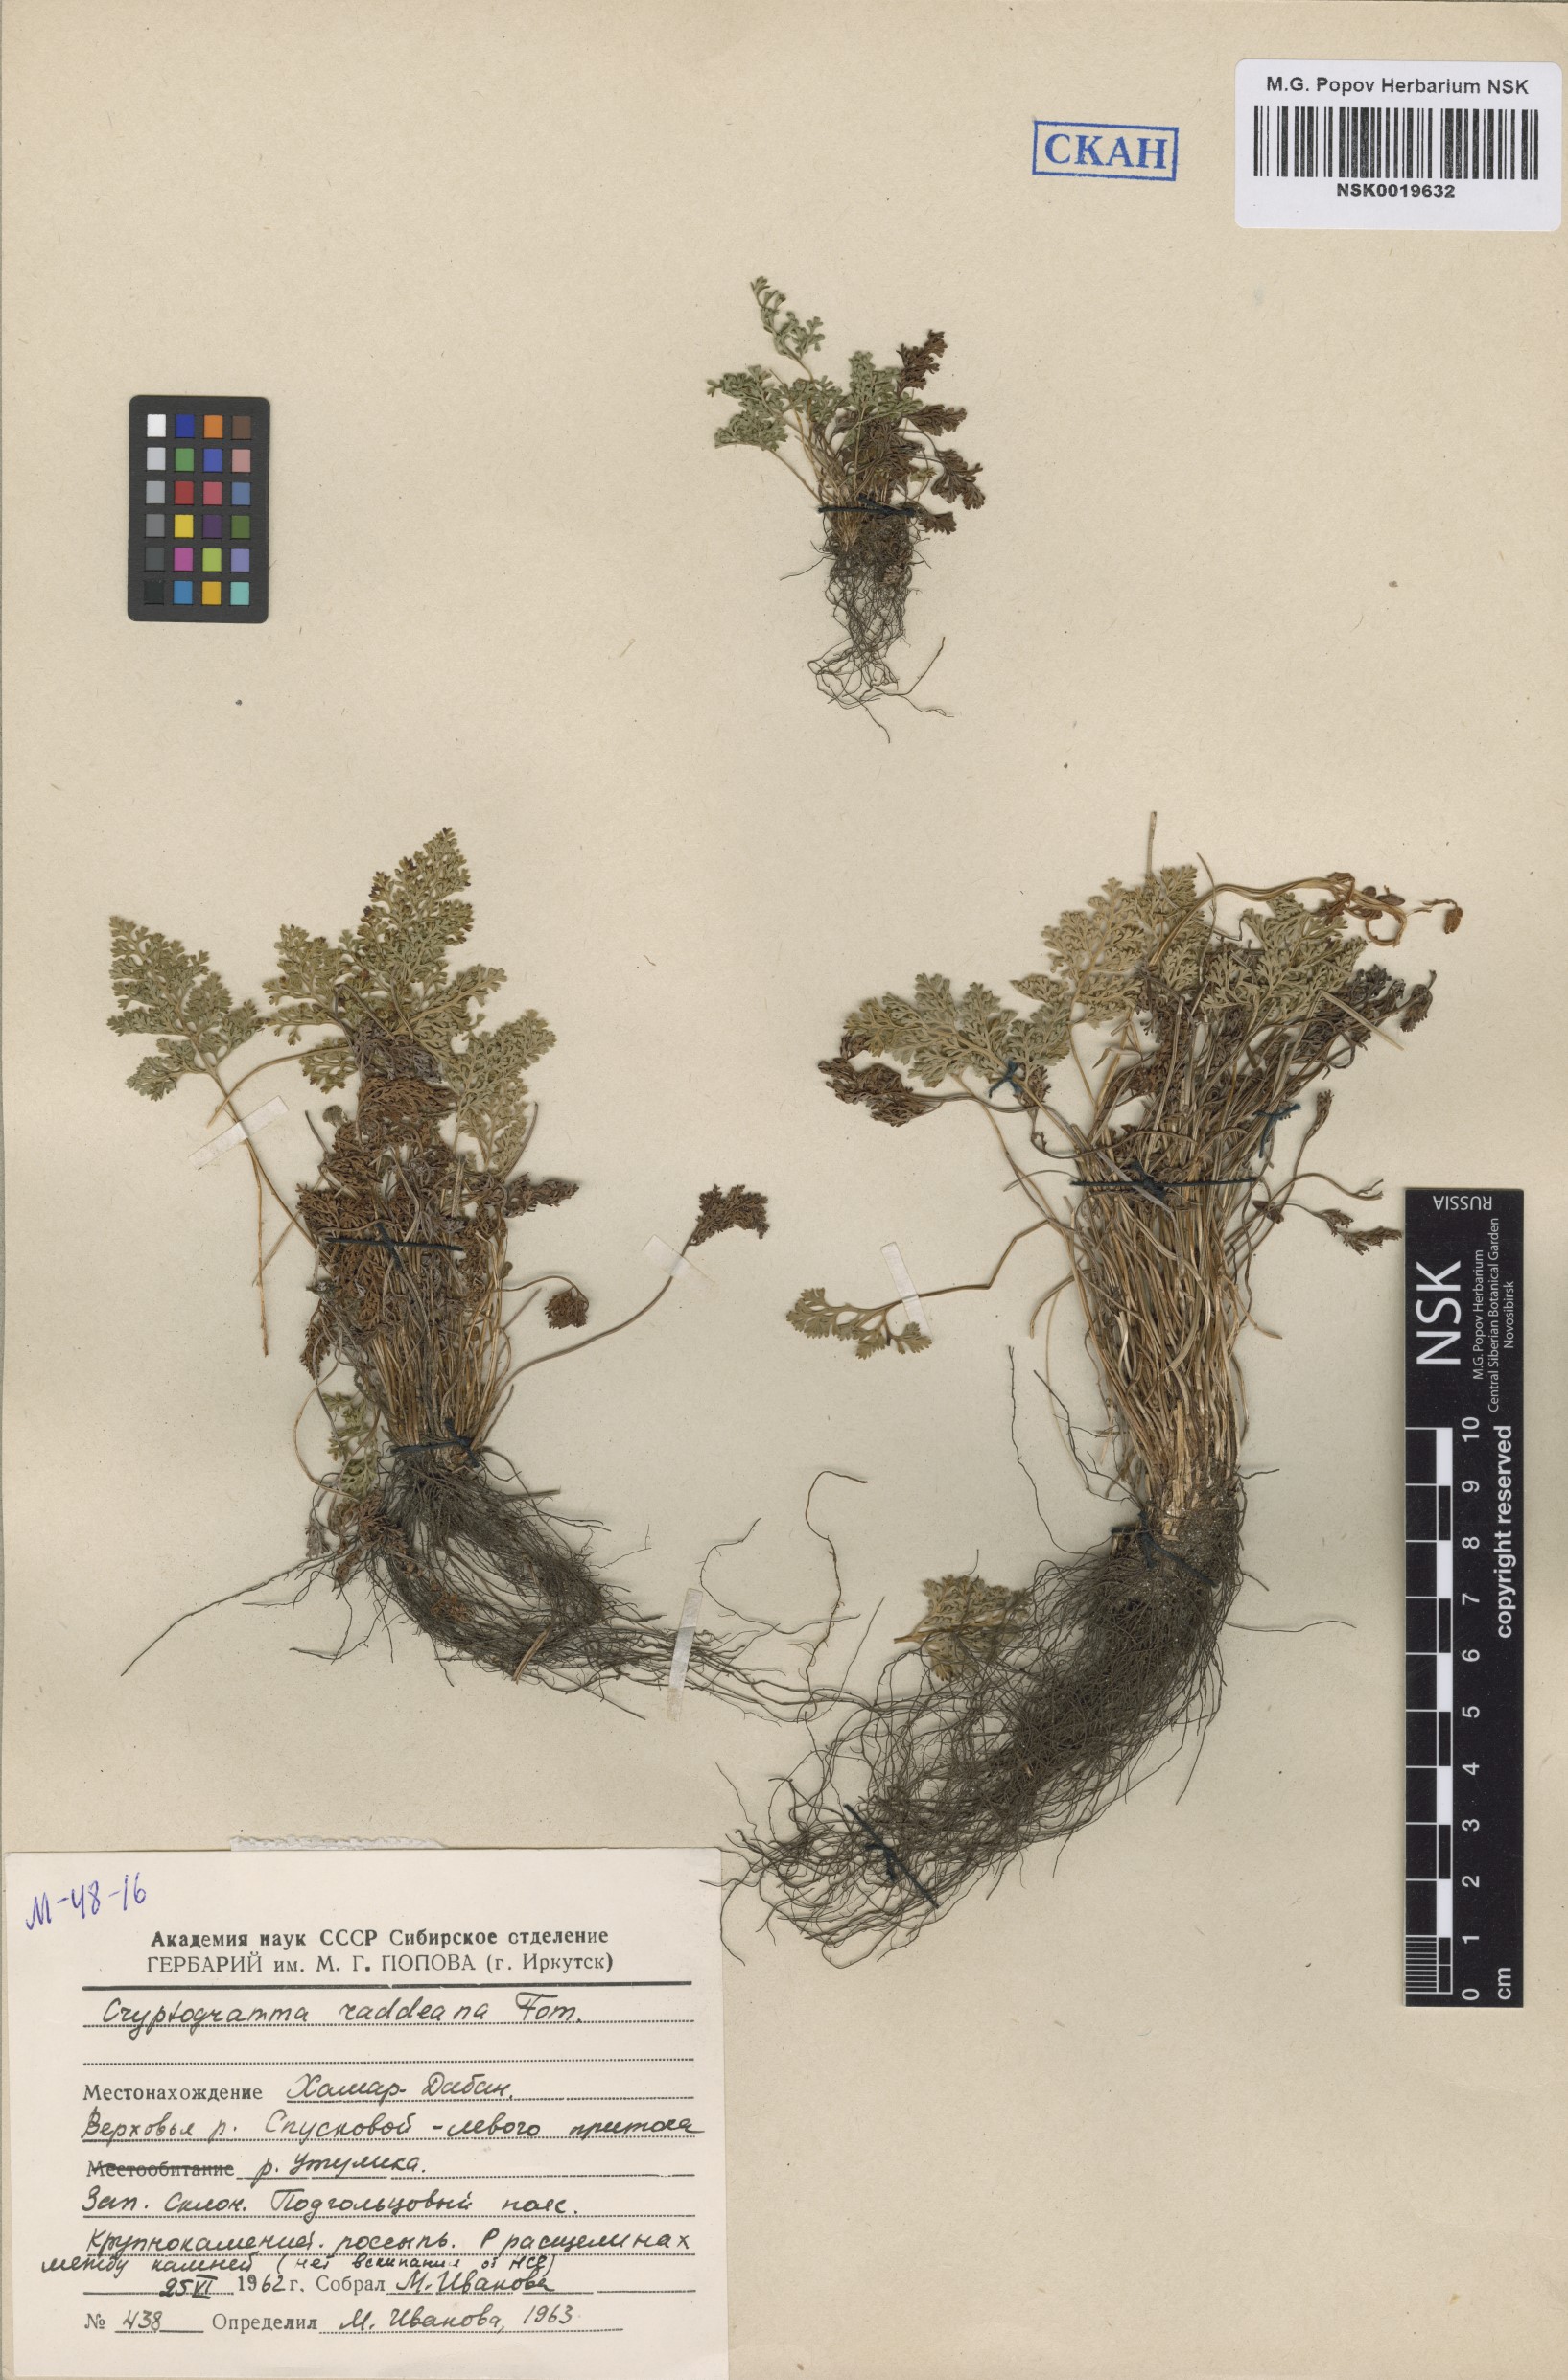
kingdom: Plantae
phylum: Tracheophyta
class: Polypodiopsida
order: Polypodiales
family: Pteridaceae
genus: Cryptogramma
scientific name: Cryptogramma brunoniana
